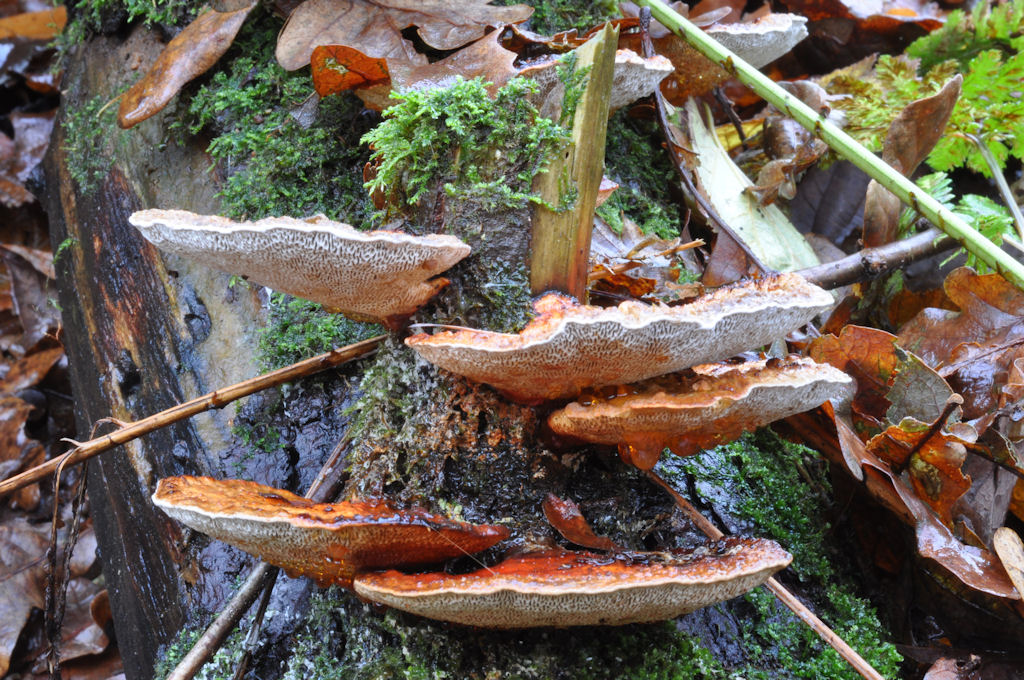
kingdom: Fungi
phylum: Basidiomycota
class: Agaricomycetes
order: Polyporales
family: Polyporaceae
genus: Daedaleopsis
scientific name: Daedaleopsis confragosa
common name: rødmende læderporesvamp
